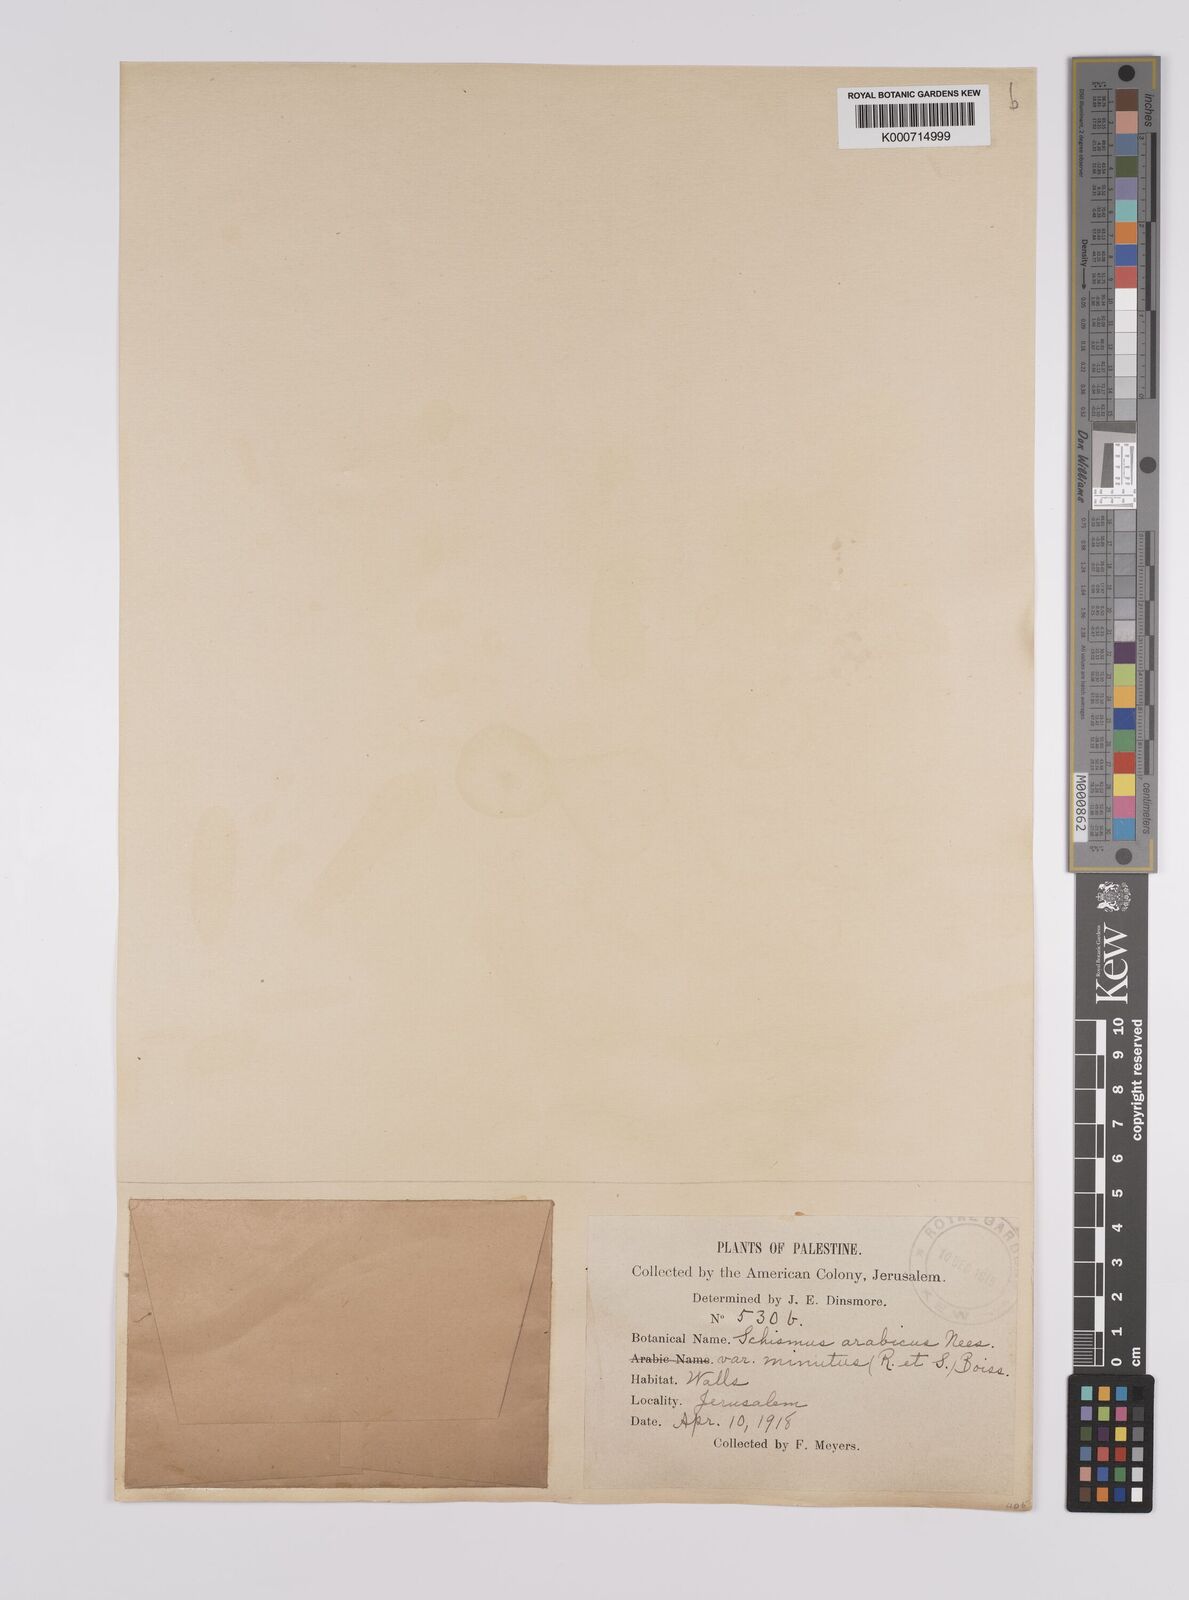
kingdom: Plantae
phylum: Tracheophyta
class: Liliopsida
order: Poales
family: Poaceae
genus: Schismus
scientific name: Schismus arabicus
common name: Arabian schismus
